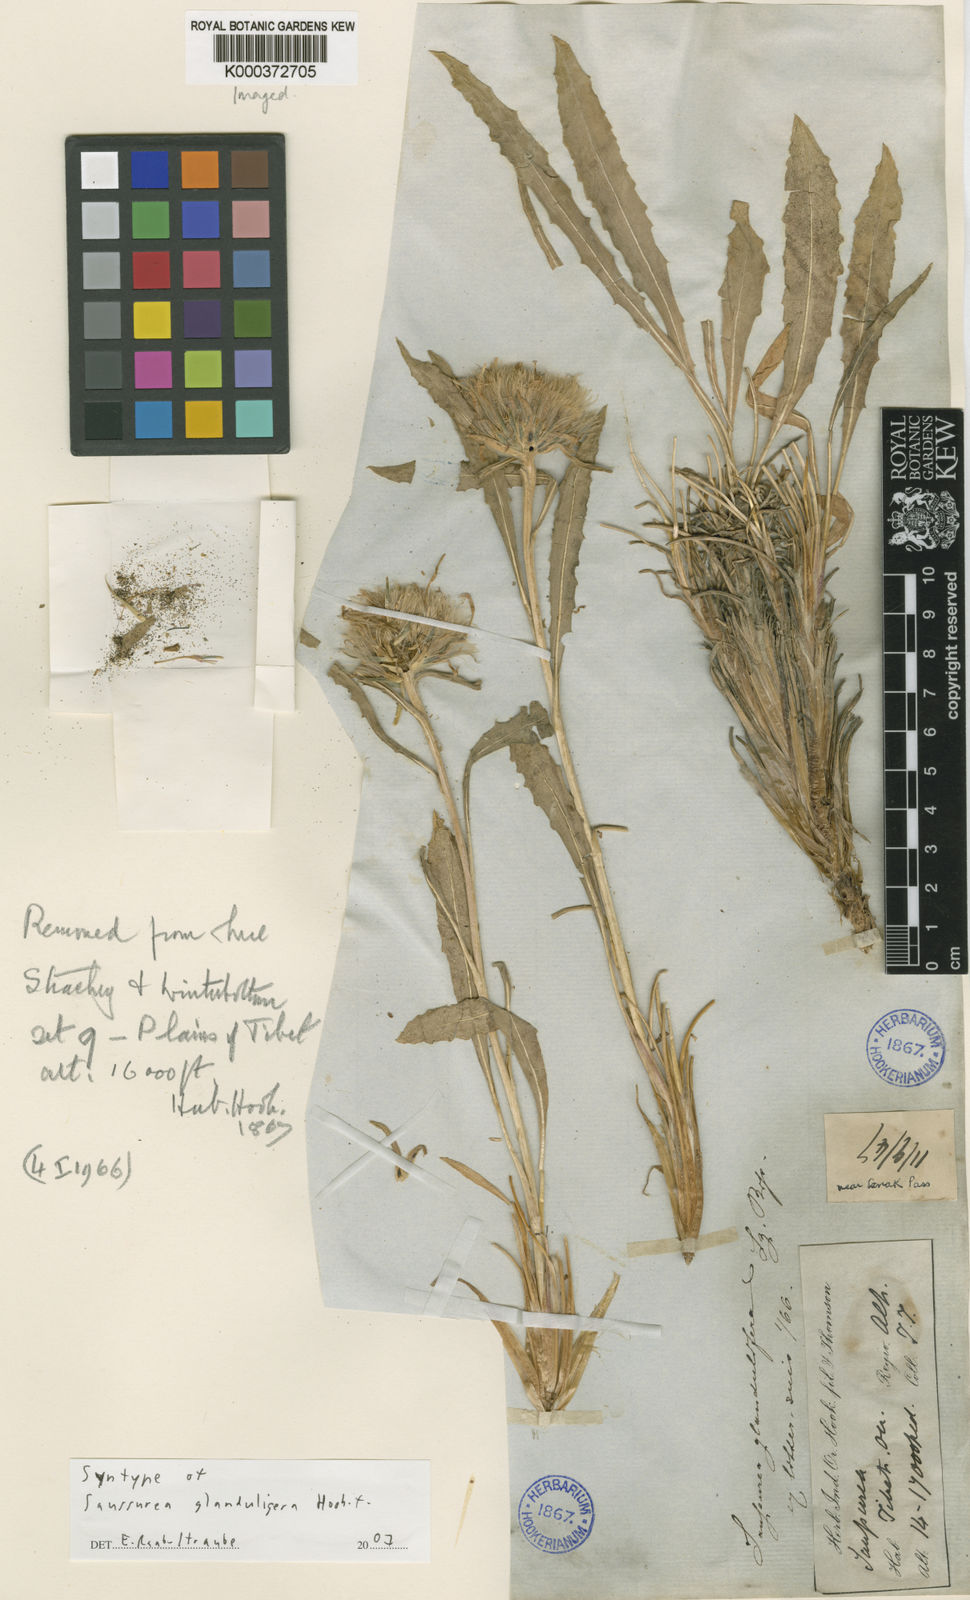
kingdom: Plantae
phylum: Tracheophyta
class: Magnoliopsida
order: Asterales
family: Asteraceae
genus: Saussurea
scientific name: Saussurea schlagintweitii
